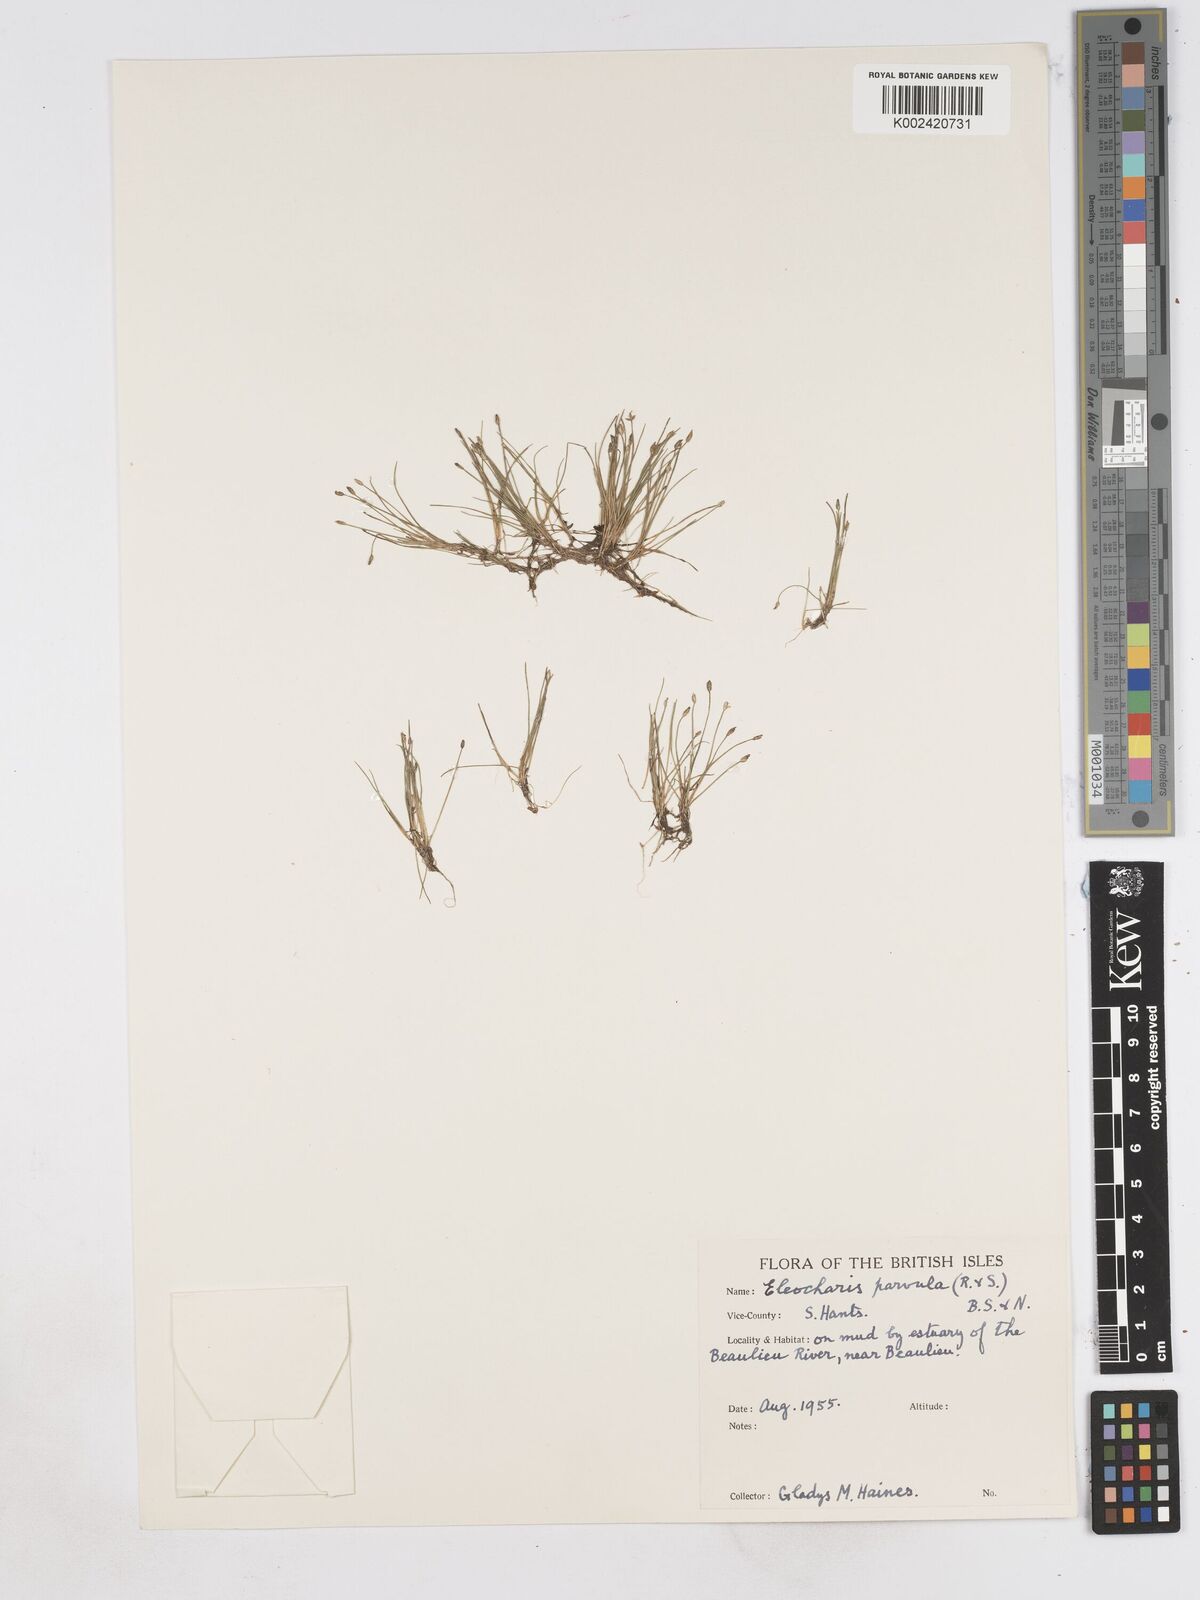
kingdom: Plantae
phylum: Tracheophyta
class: Liliopsida
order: Poales
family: Cyperaceae
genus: Eleocharis
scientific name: Eleocharis parvula
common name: Dwarf spike-rush
